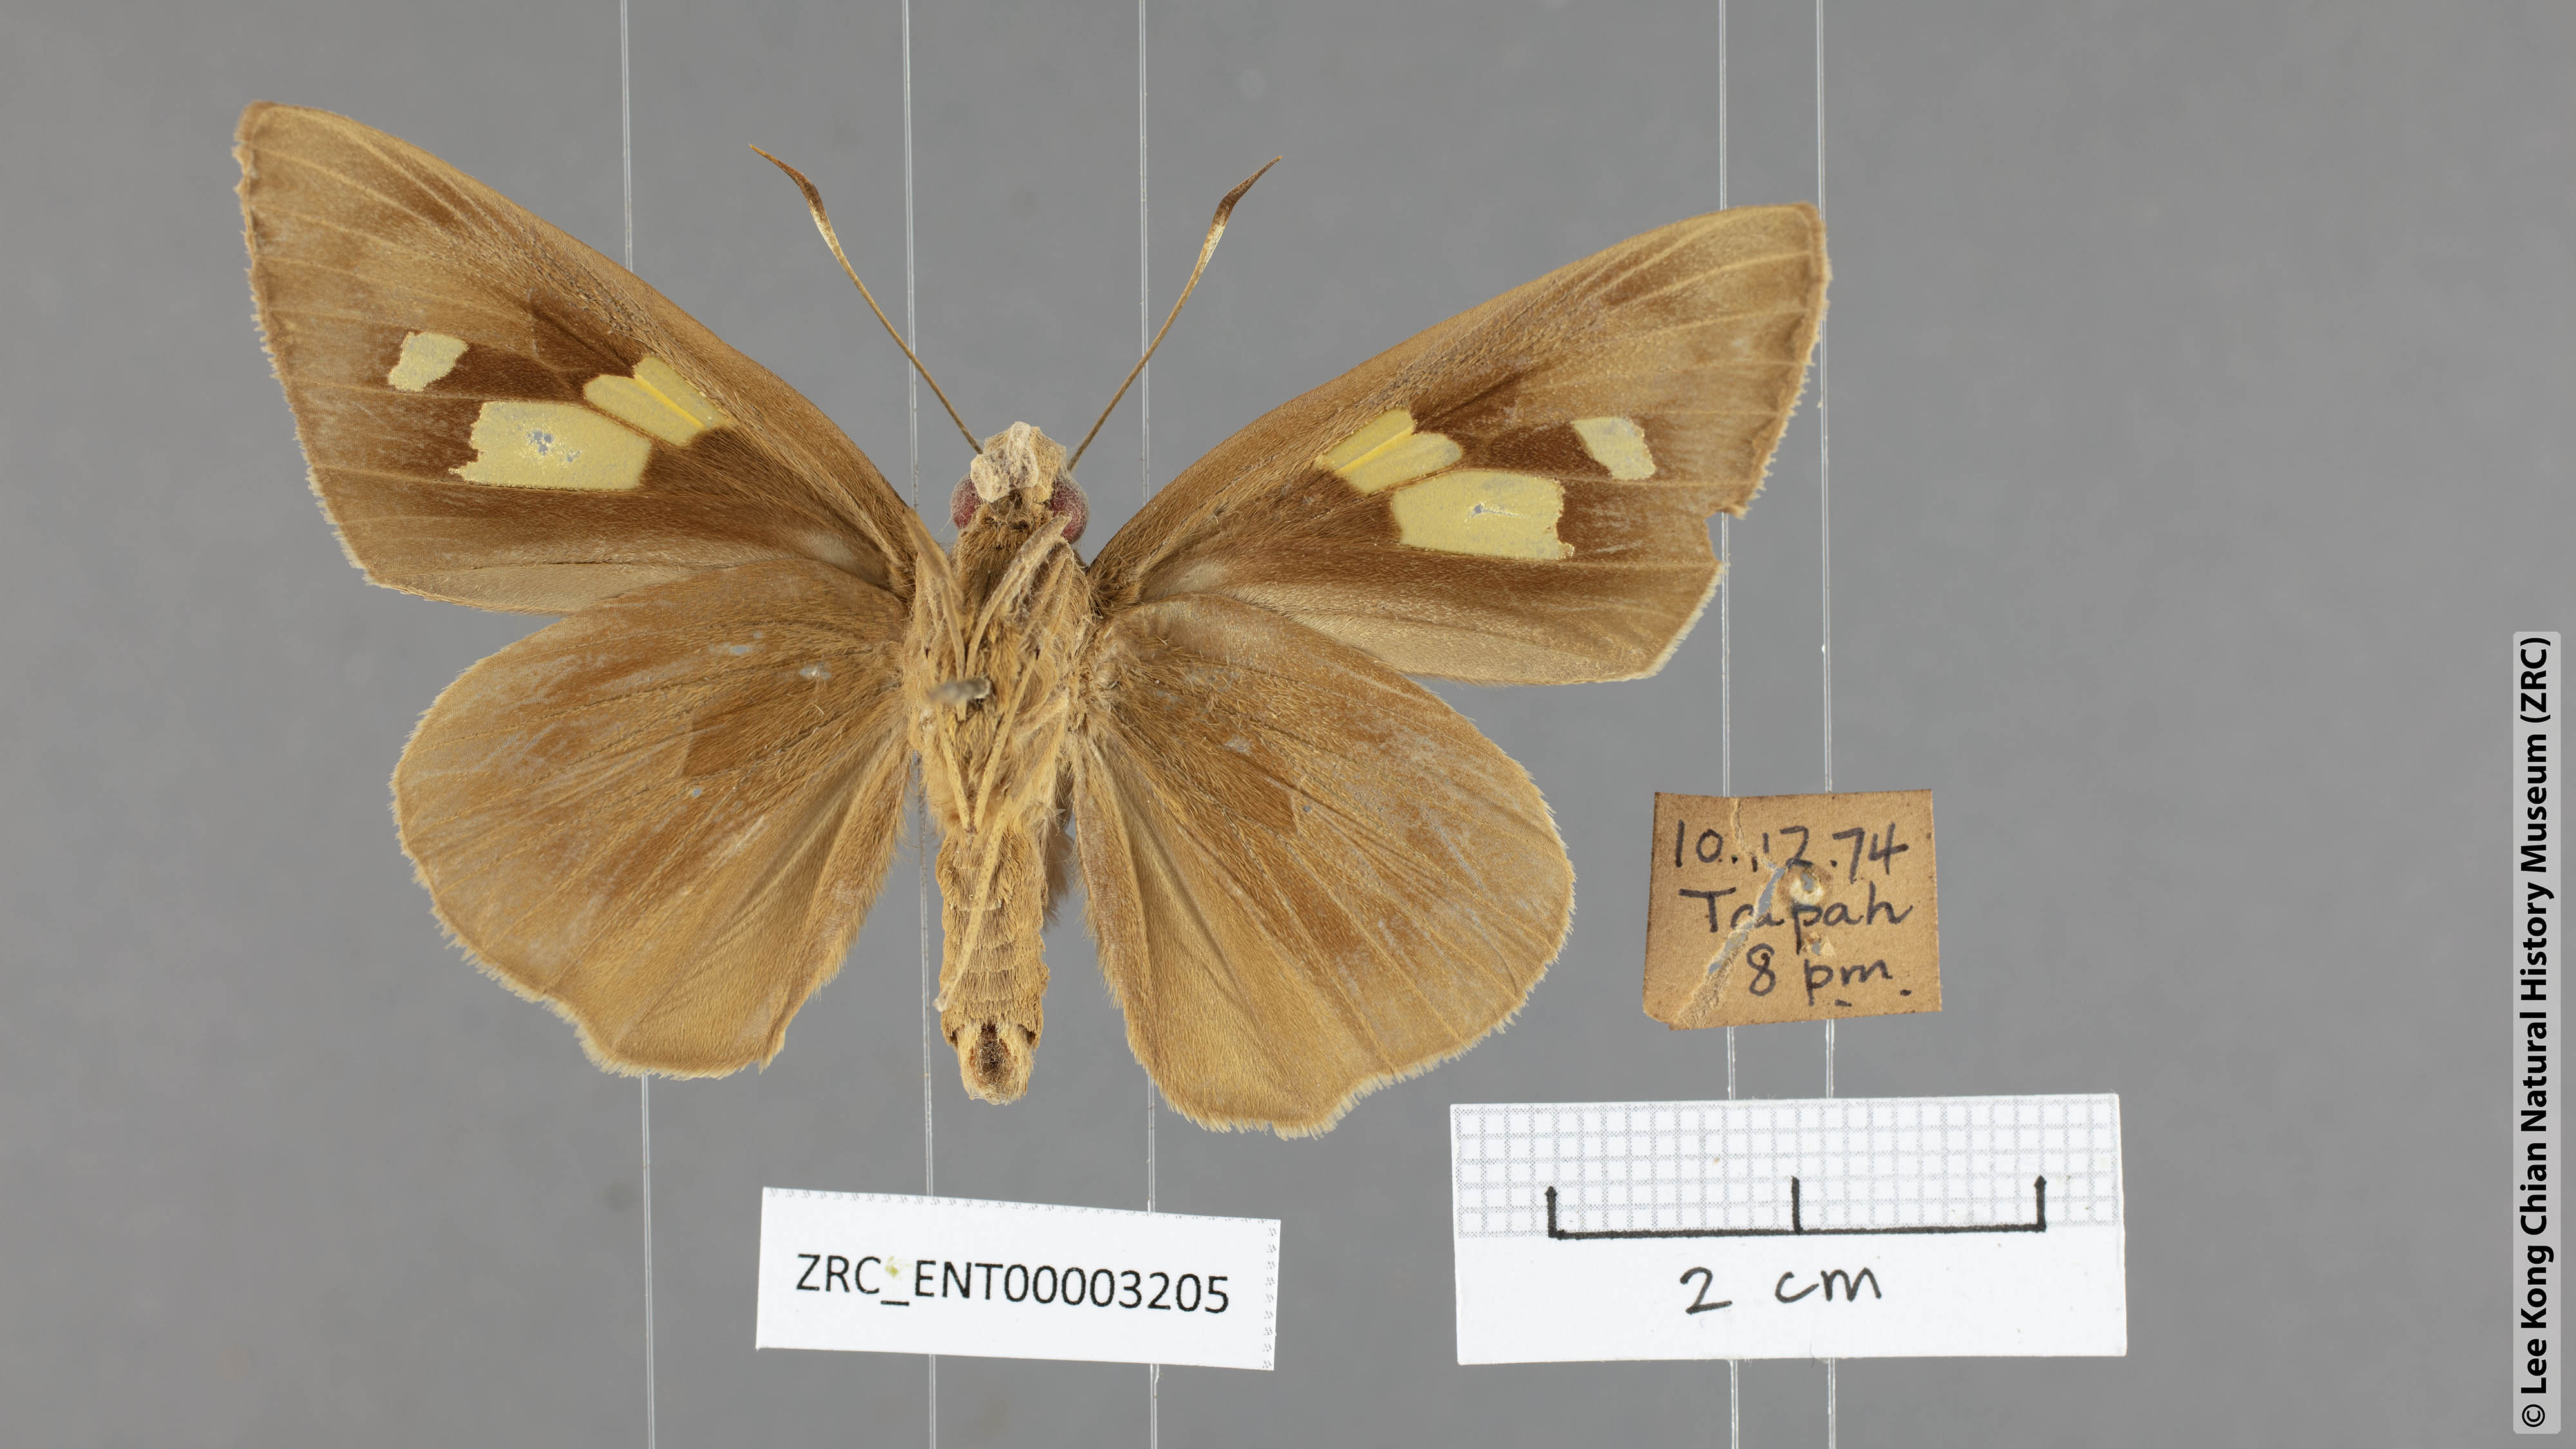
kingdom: Animalia
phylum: Arthropoda
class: Insecta
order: Lepidoptera
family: Hesperiidae
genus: Erionota
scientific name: Erionota torus
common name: Rounded palm-redeye
